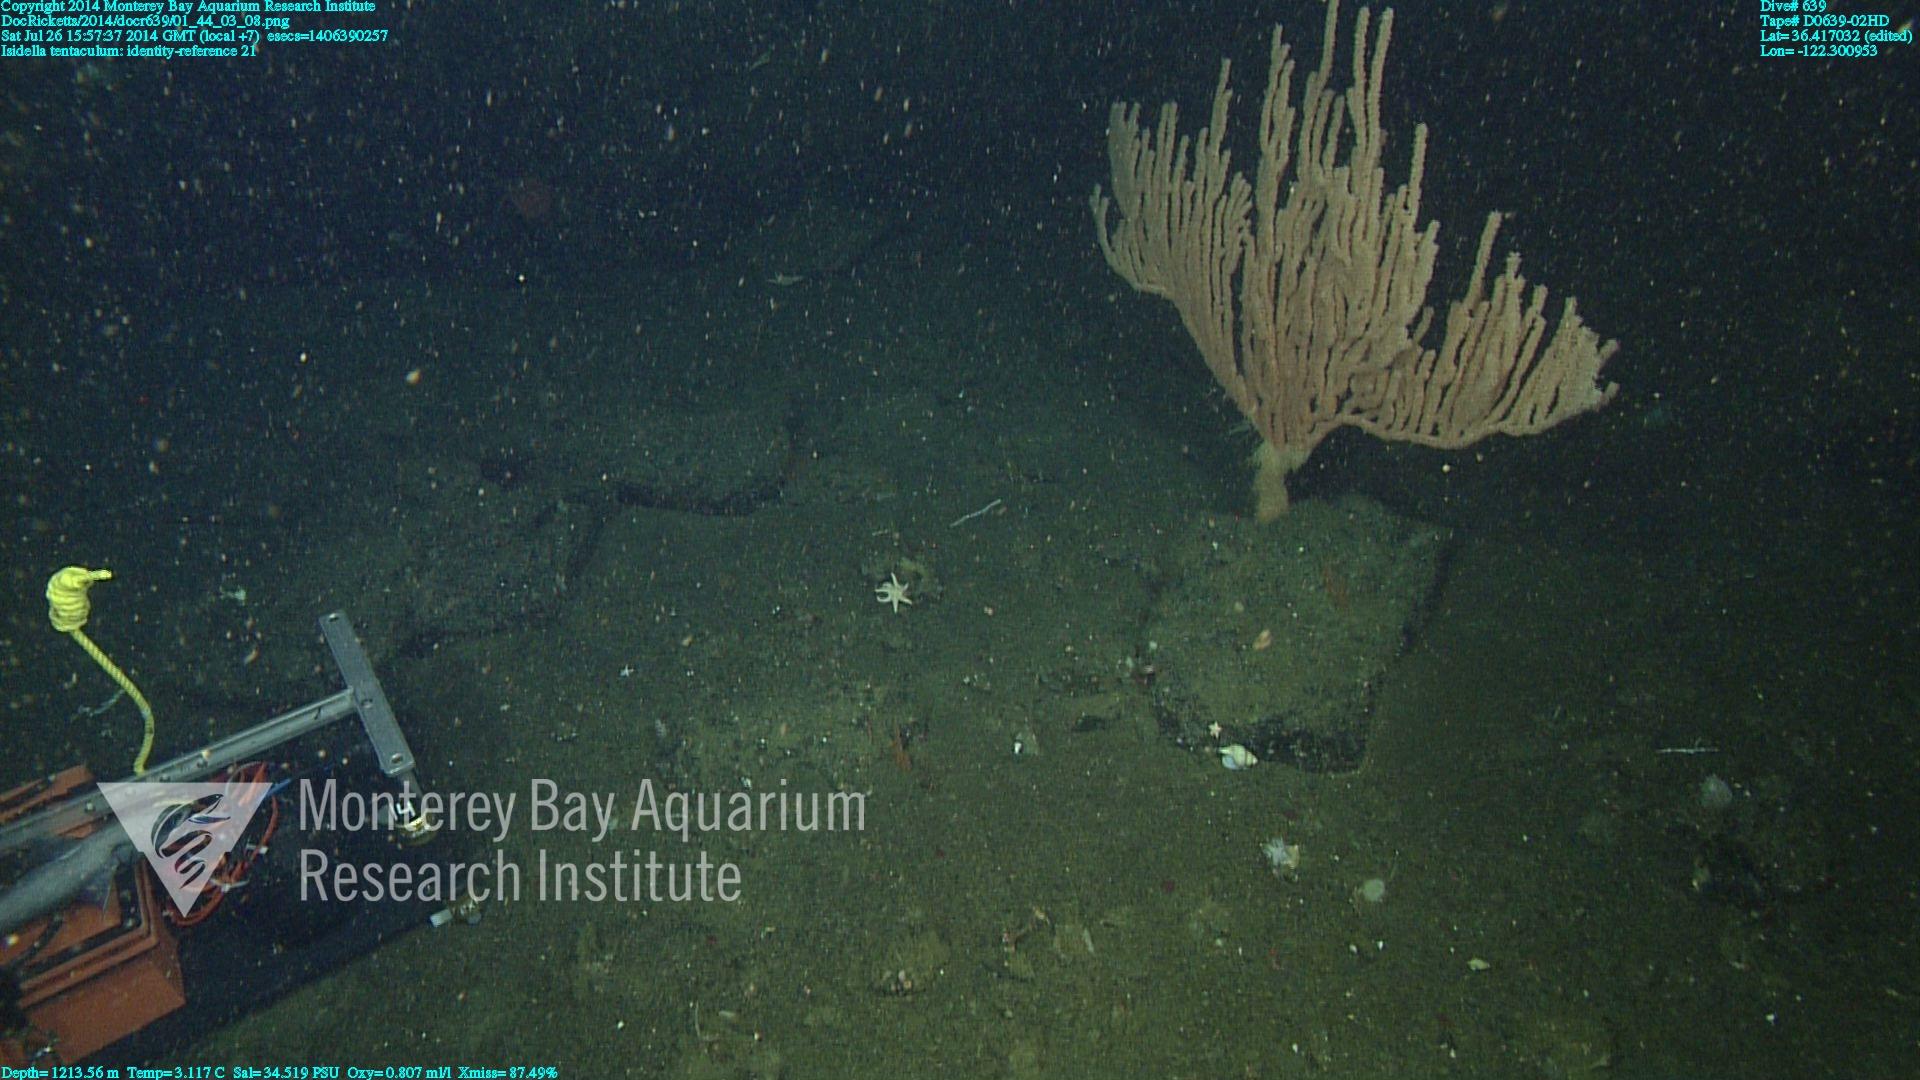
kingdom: Animalia
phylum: Cnidaria
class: Anthozoa
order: Scleralcyonacea
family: Keratoisididae
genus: Isidella
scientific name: Isidella tentaculum
